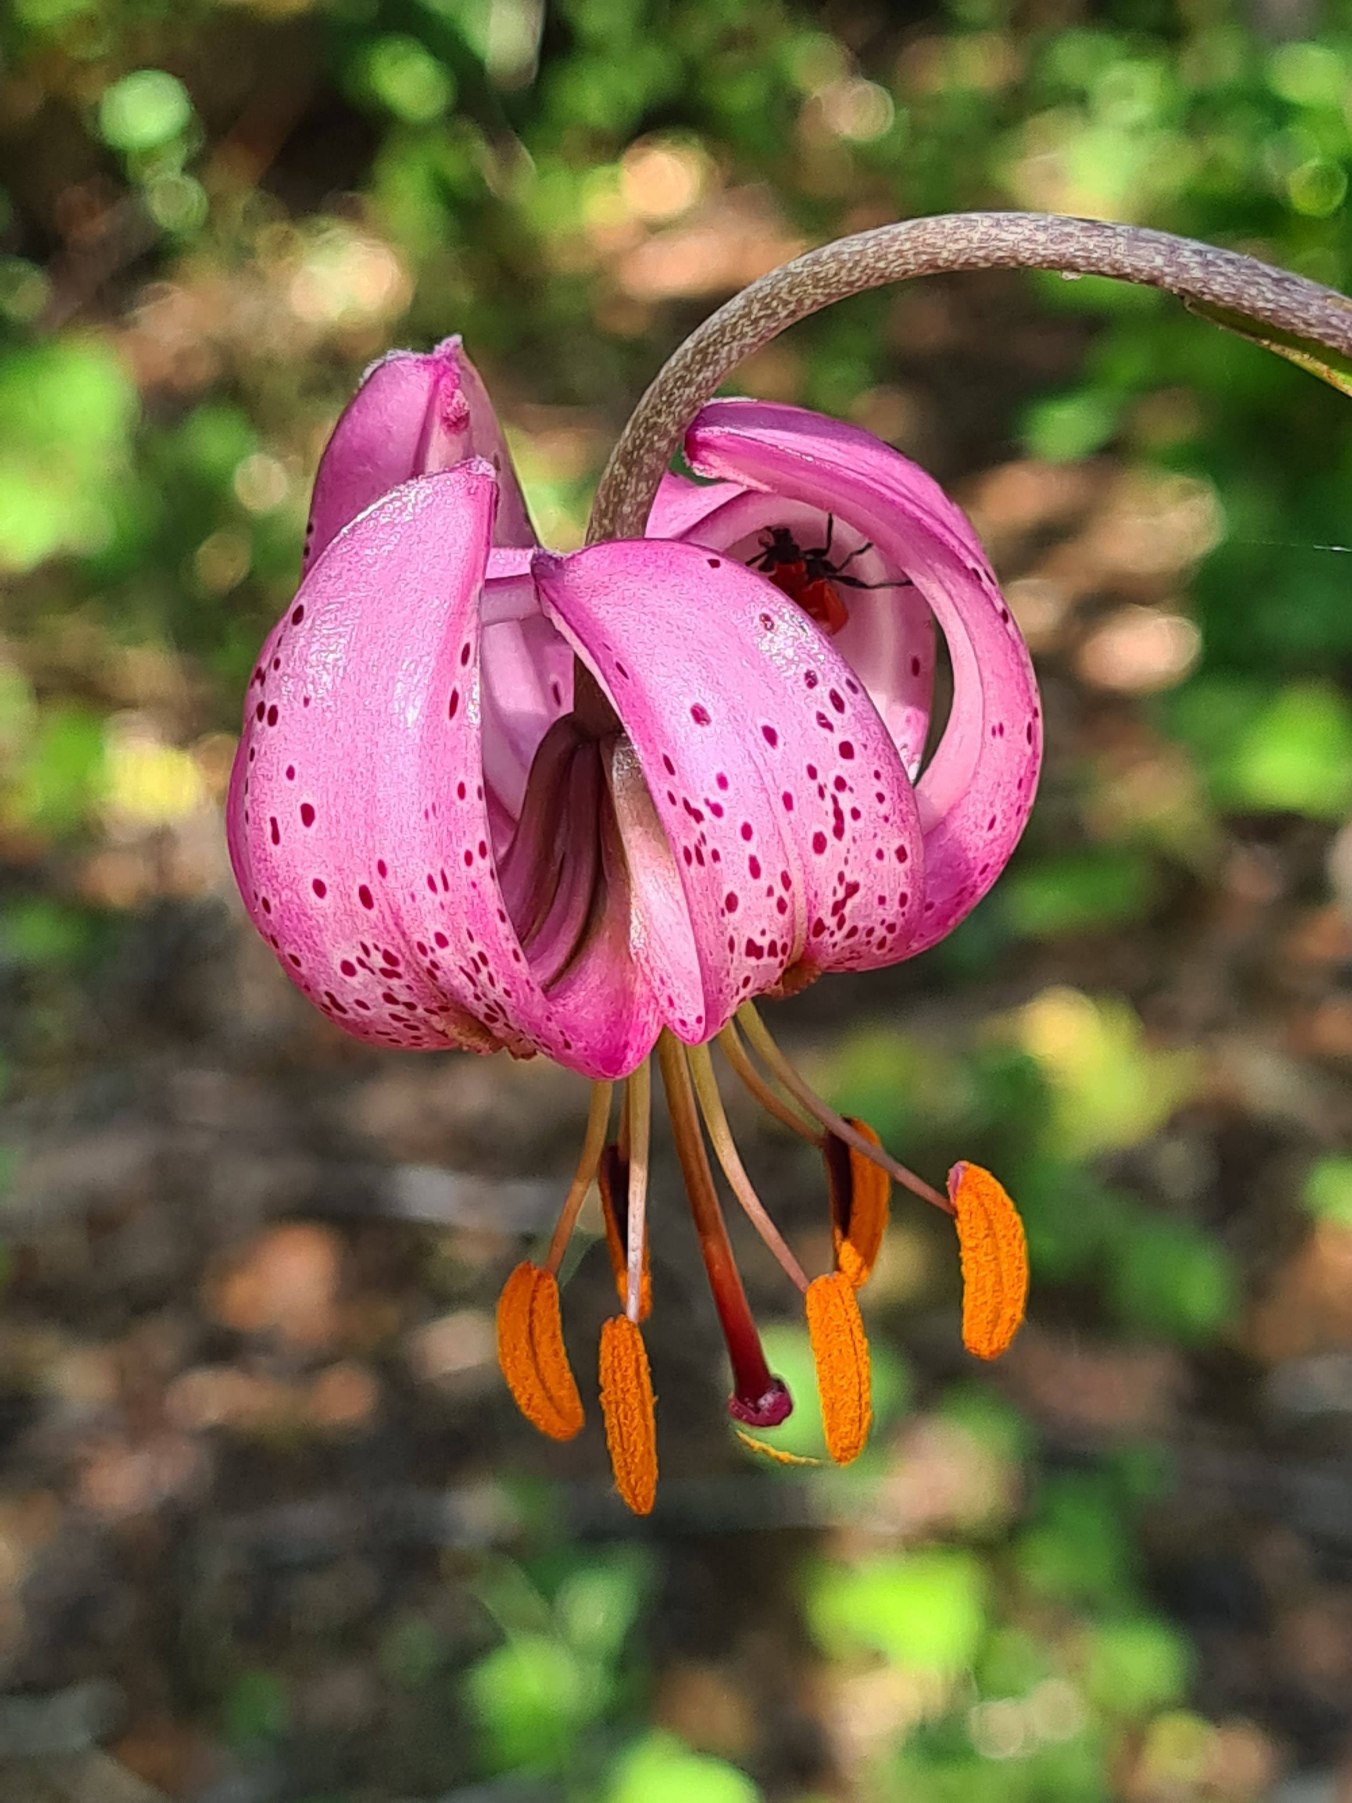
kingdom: Plantae
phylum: Tracheophyta
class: Liliopsida
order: Liliales
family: Liliaceae
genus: Lilium
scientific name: Lilium martagon
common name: Krans-lilje
